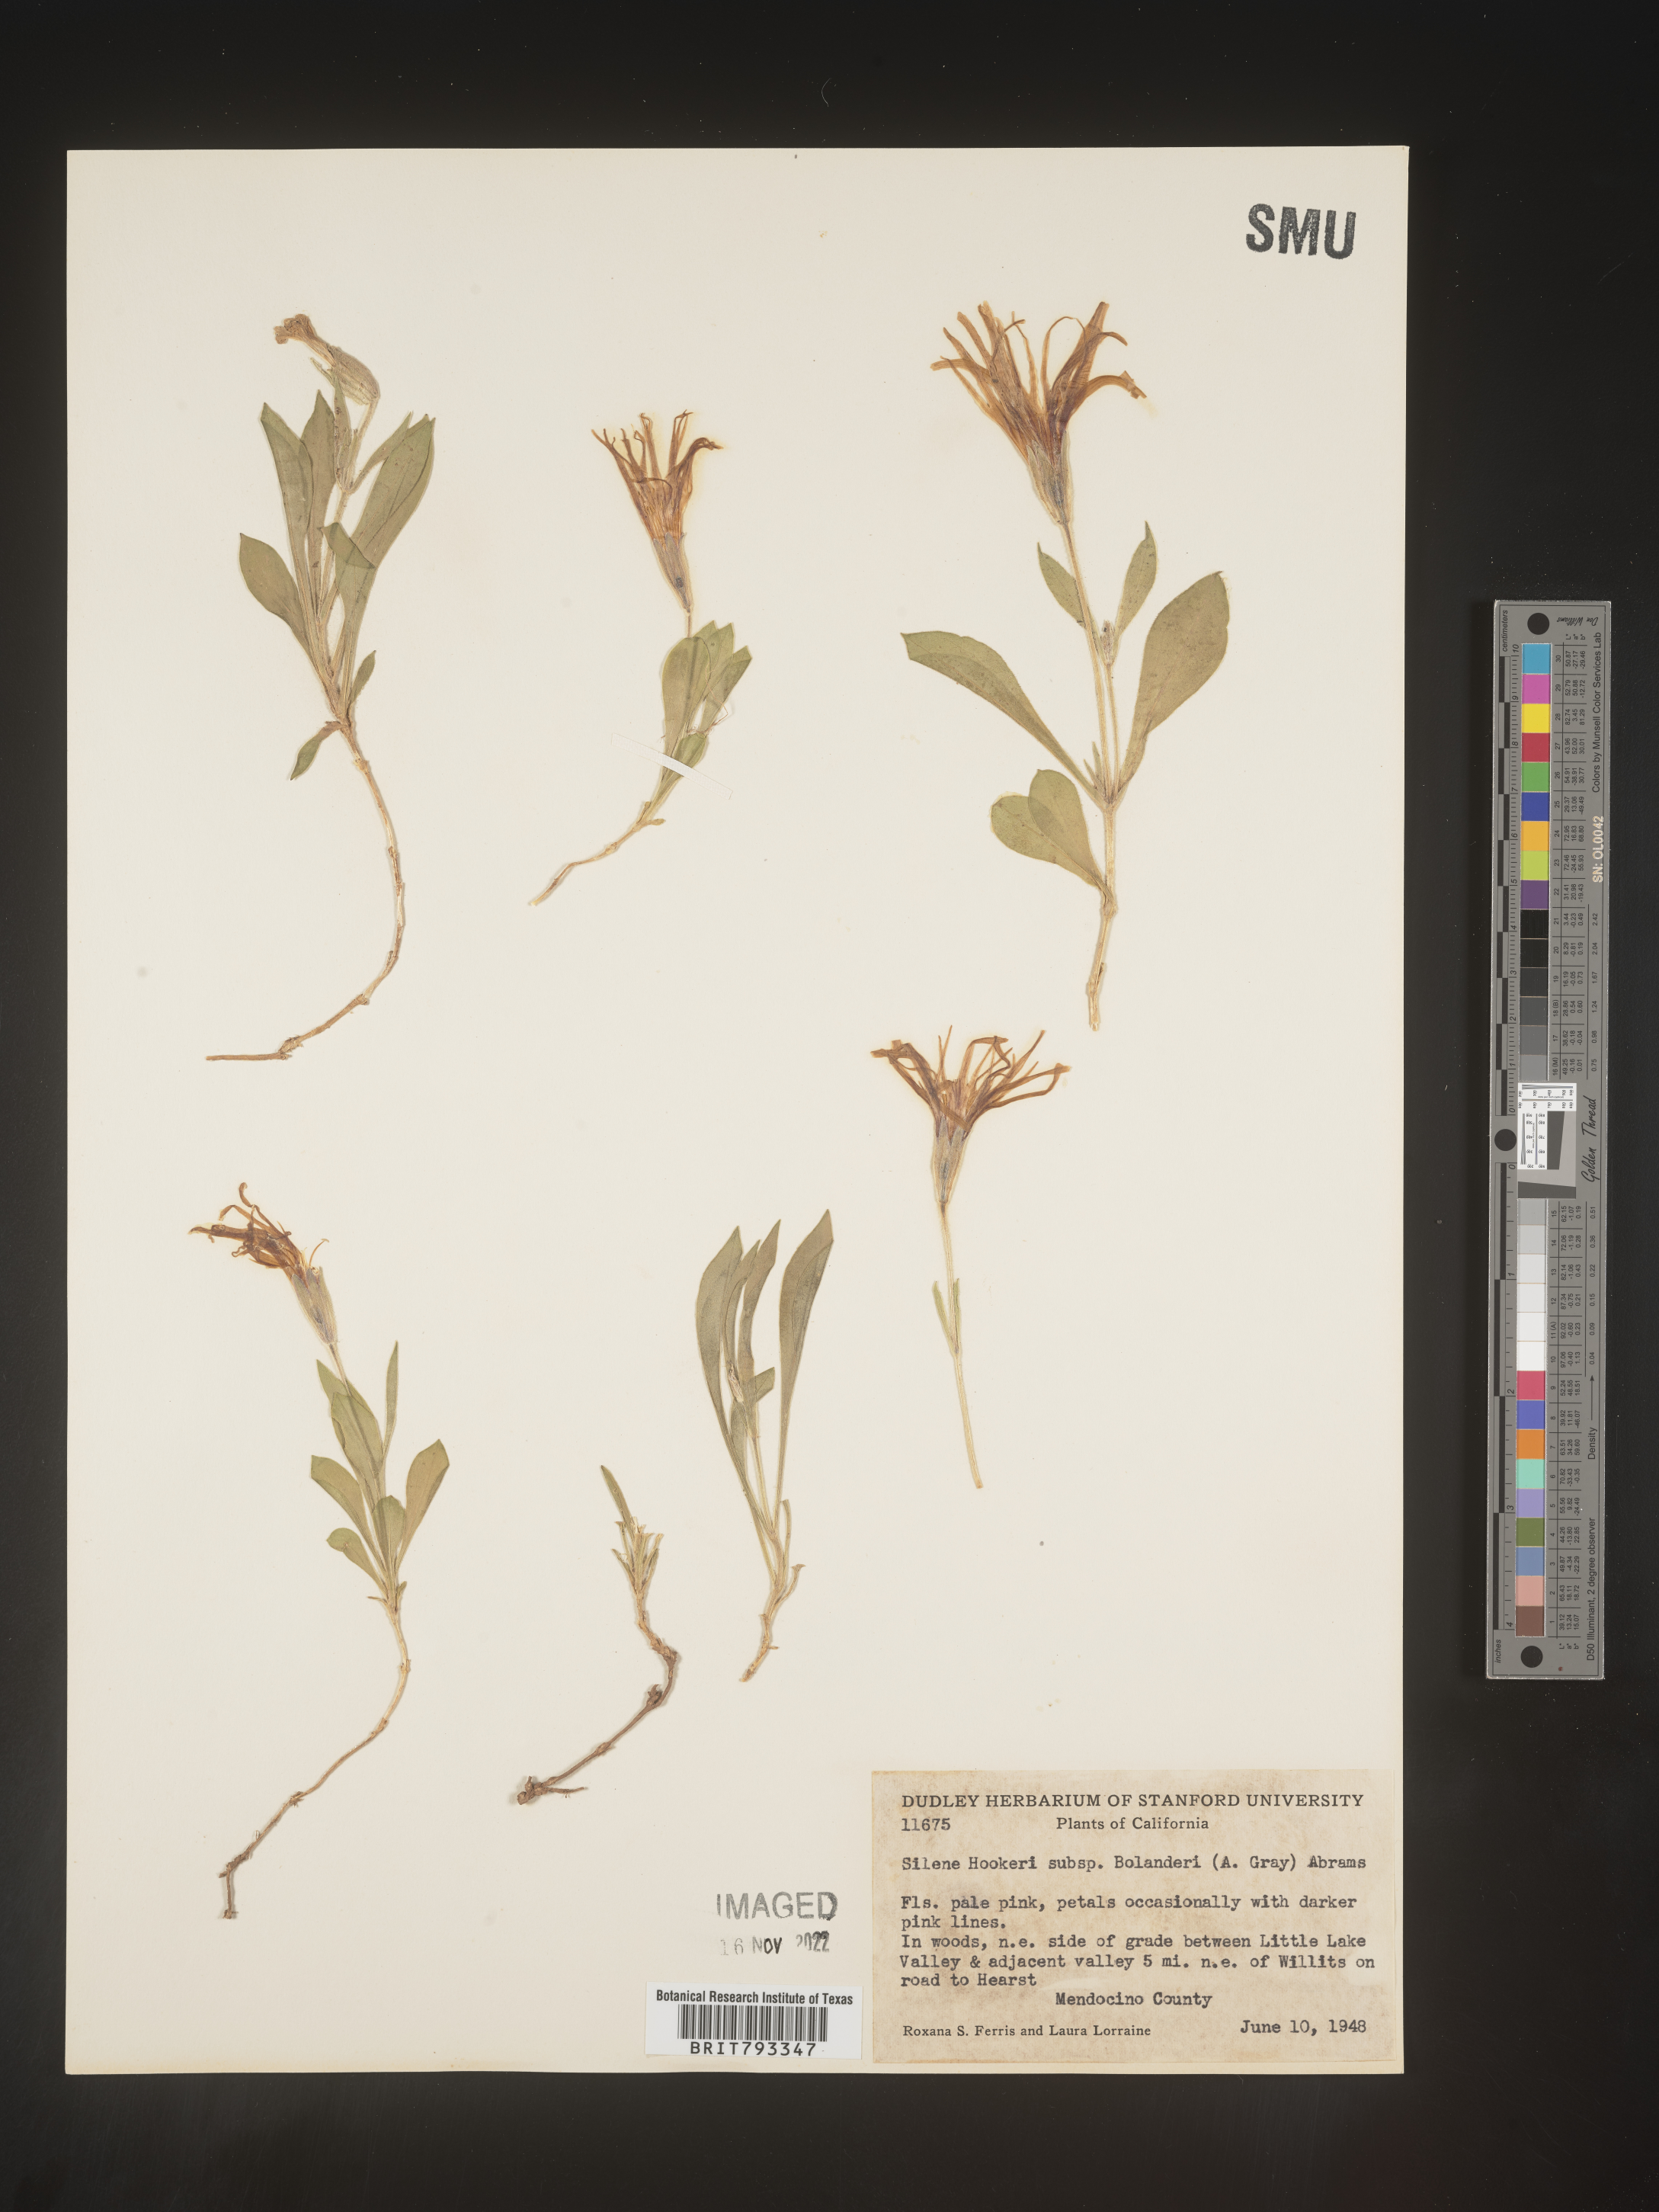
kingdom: Plantae
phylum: Tracheophyta
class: Magnoliopsida
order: Caryophyllales
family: Caryophyllaceae
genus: Silene
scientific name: Silene bolanderi
